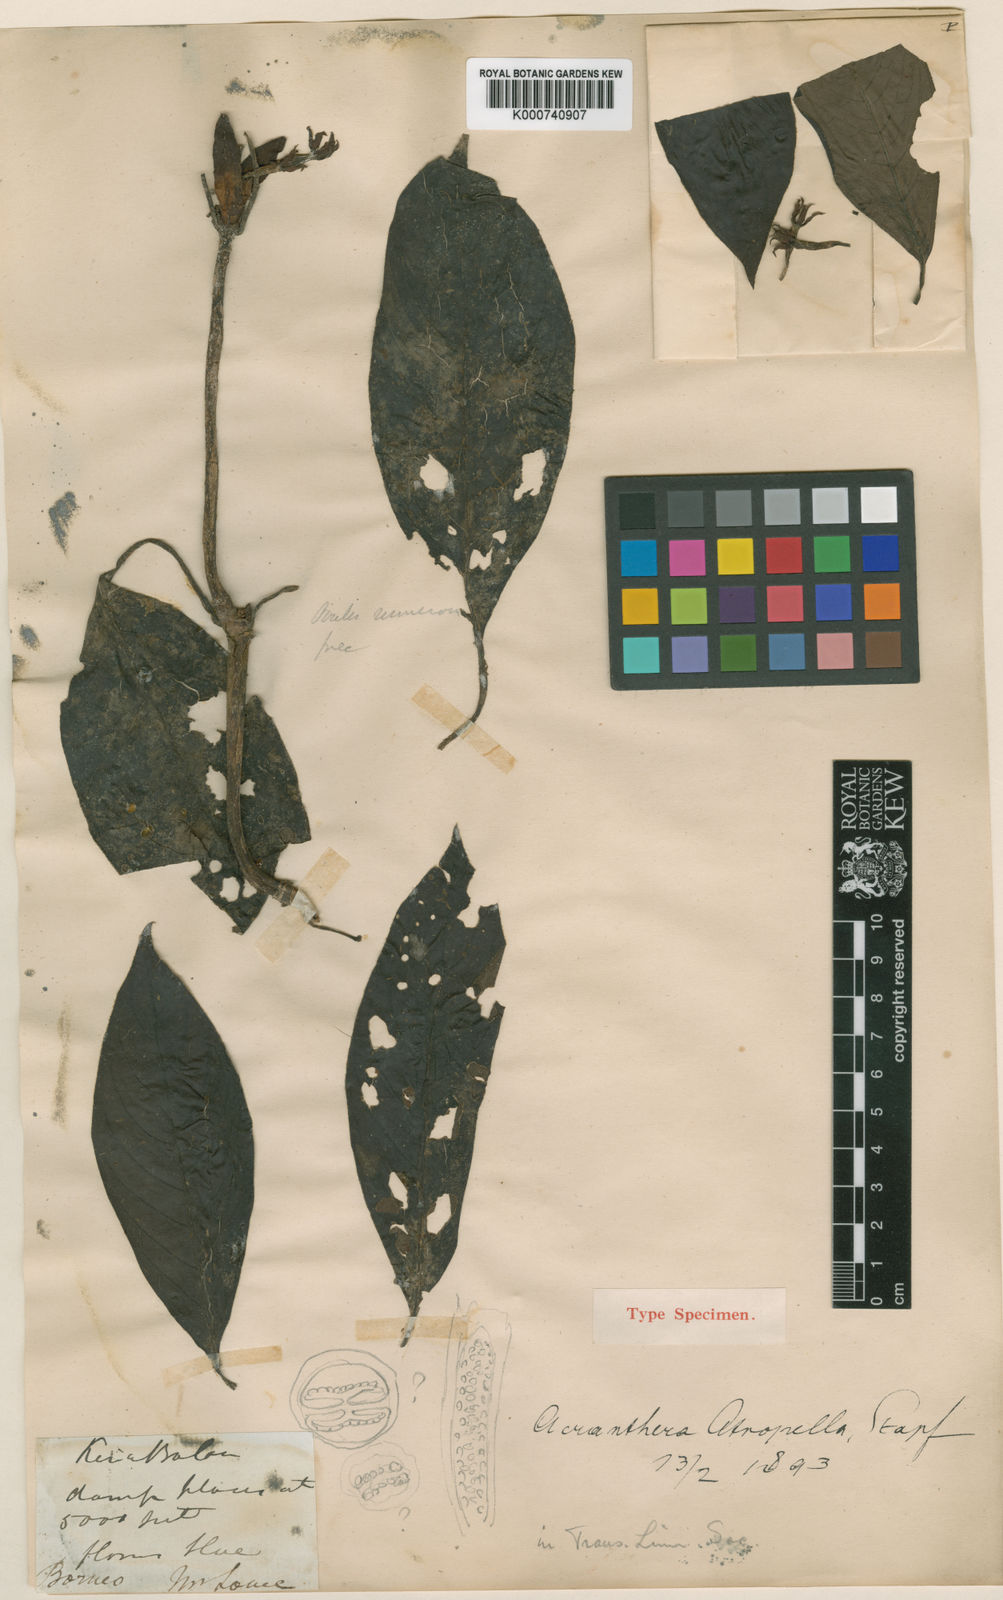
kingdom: Plantae
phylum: Tracheophyta
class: Magnoliopsida
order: Gentianales
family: Rubiaceae
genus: Acranthera
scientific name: Acranthera atropella
